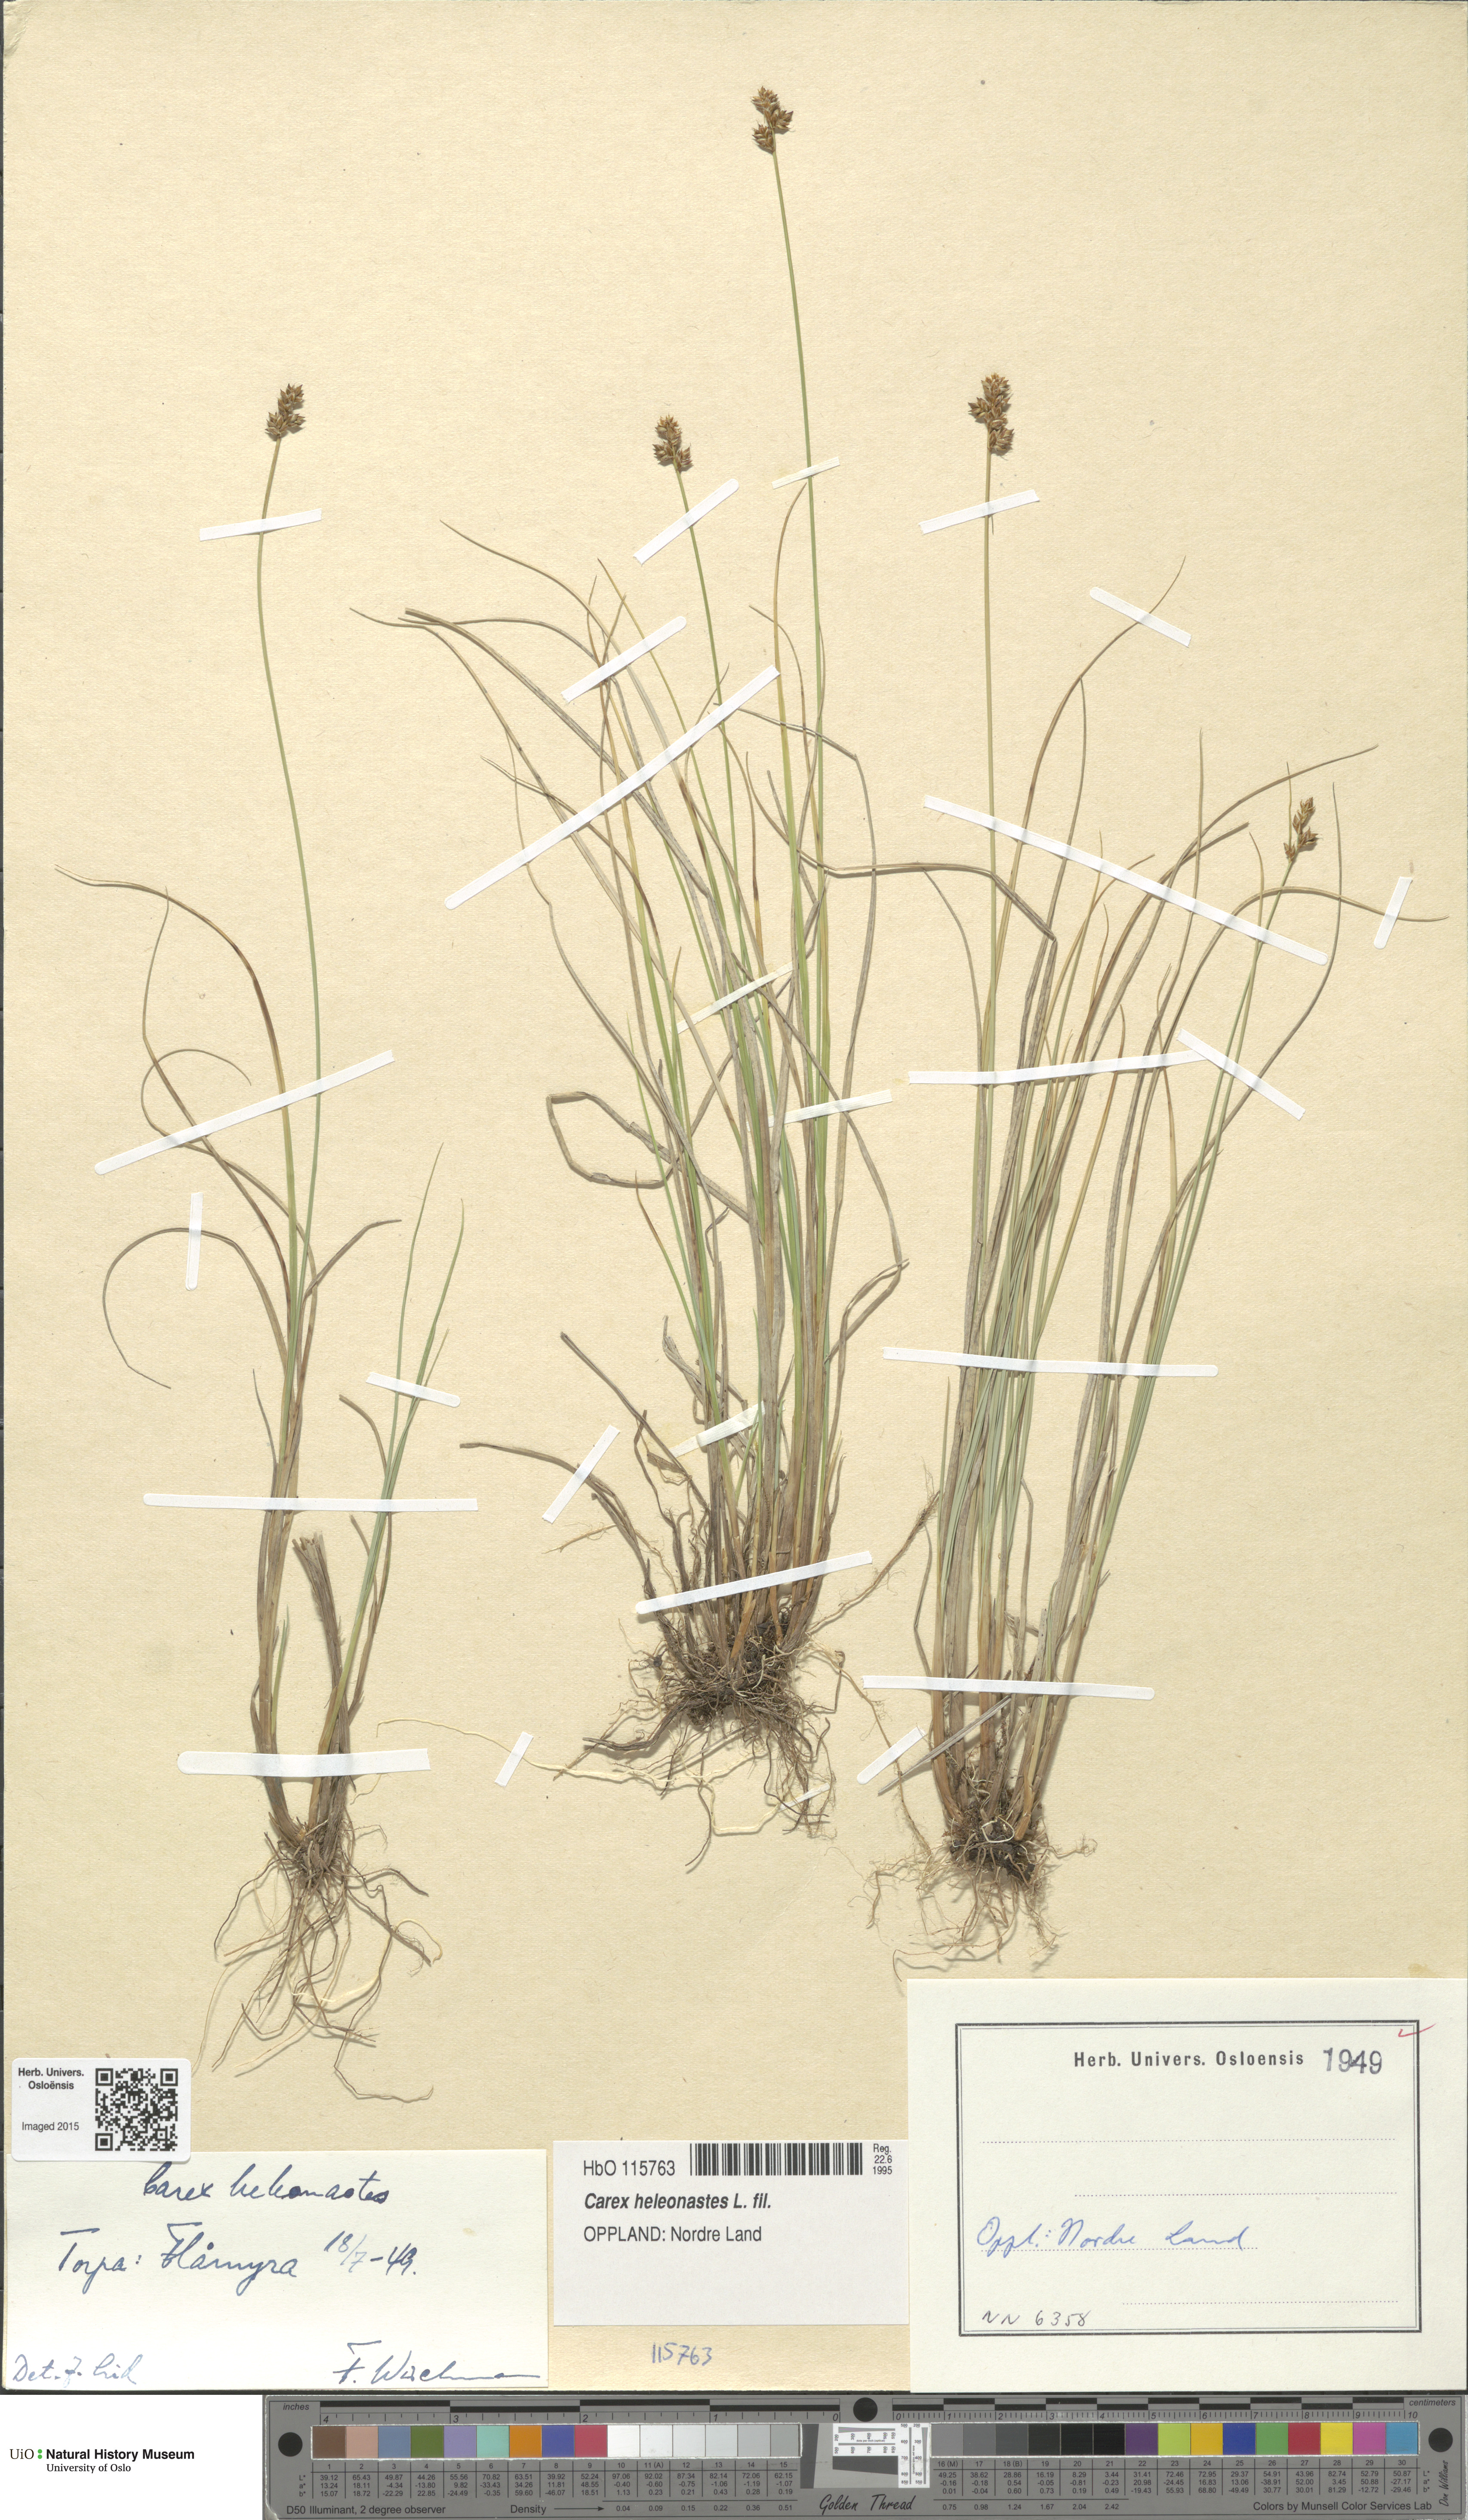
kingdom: Plantae
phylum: Tracheophyta
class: Liliopsida
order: Poales
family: Cyperaceae
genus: Carex
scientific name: Carex heleonastes
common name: Hudson bay sedge
